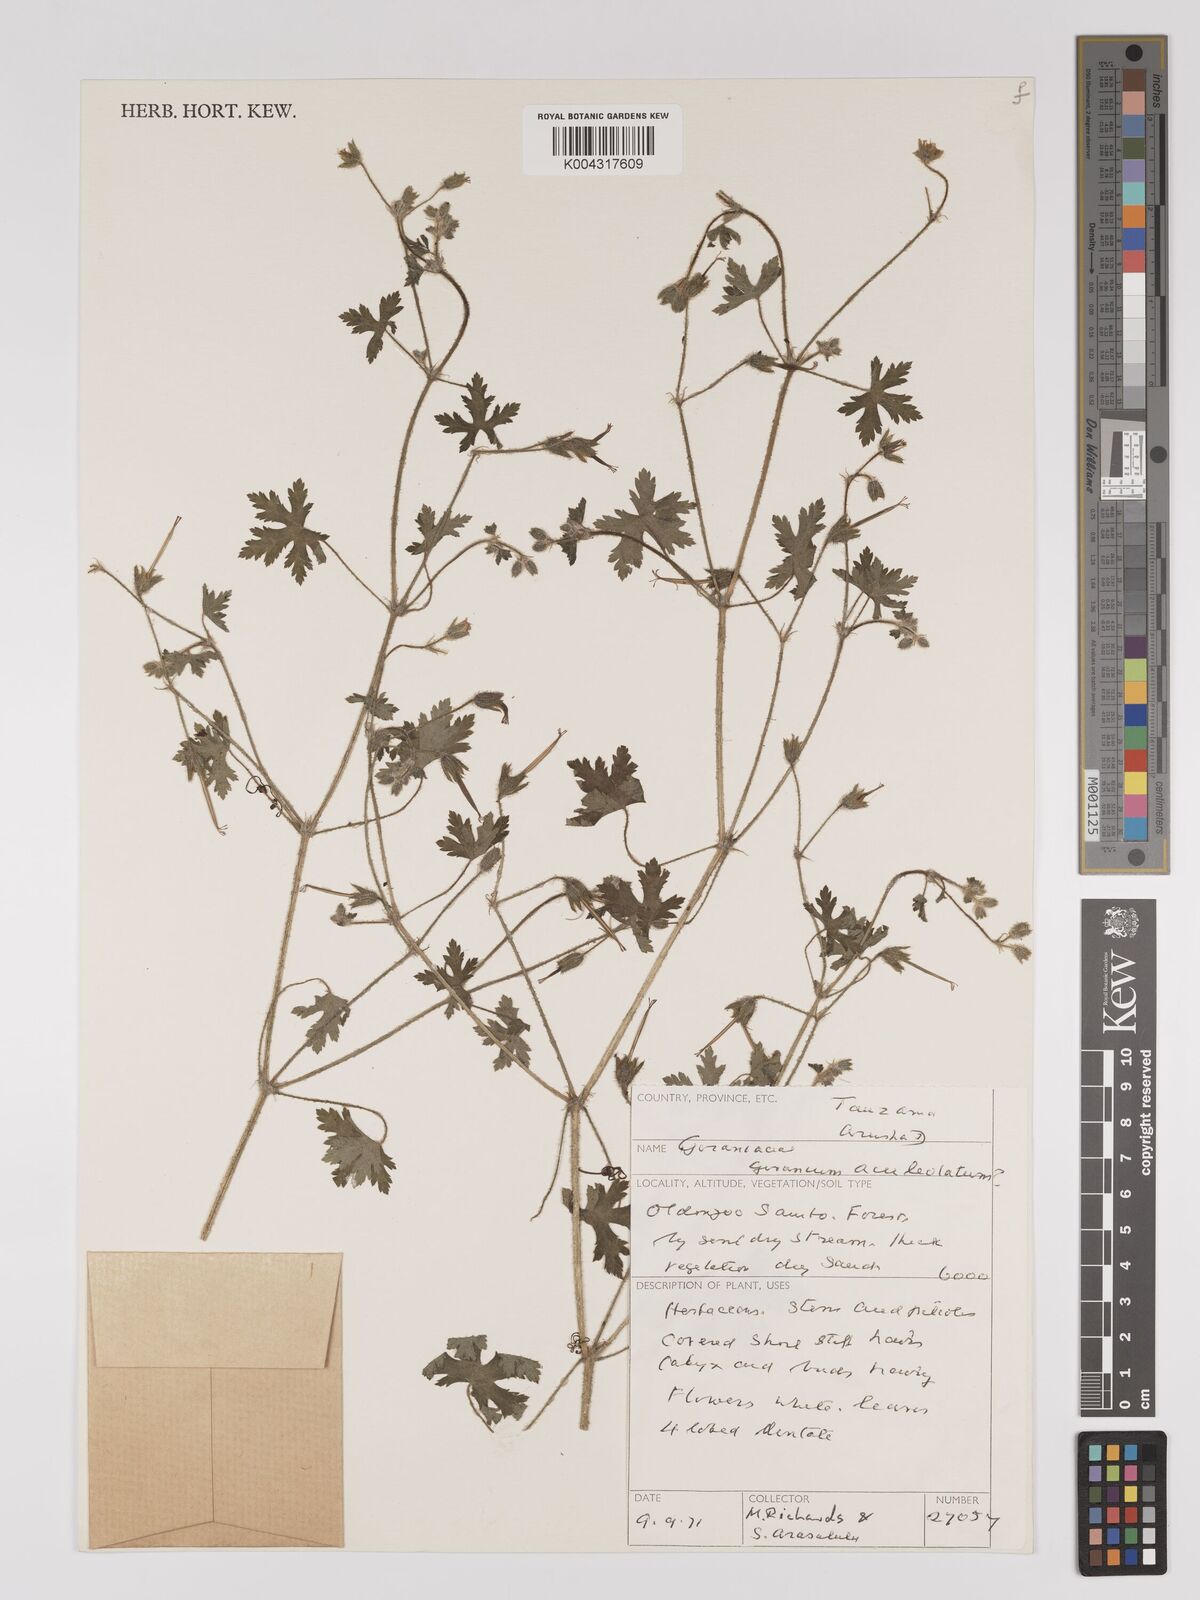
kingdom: Plantae
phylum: Tracheophyta
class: Magnoliopsida
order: Geraniales
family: Geraniaceae
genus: Geranium
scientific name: Geranium aculeolatum
